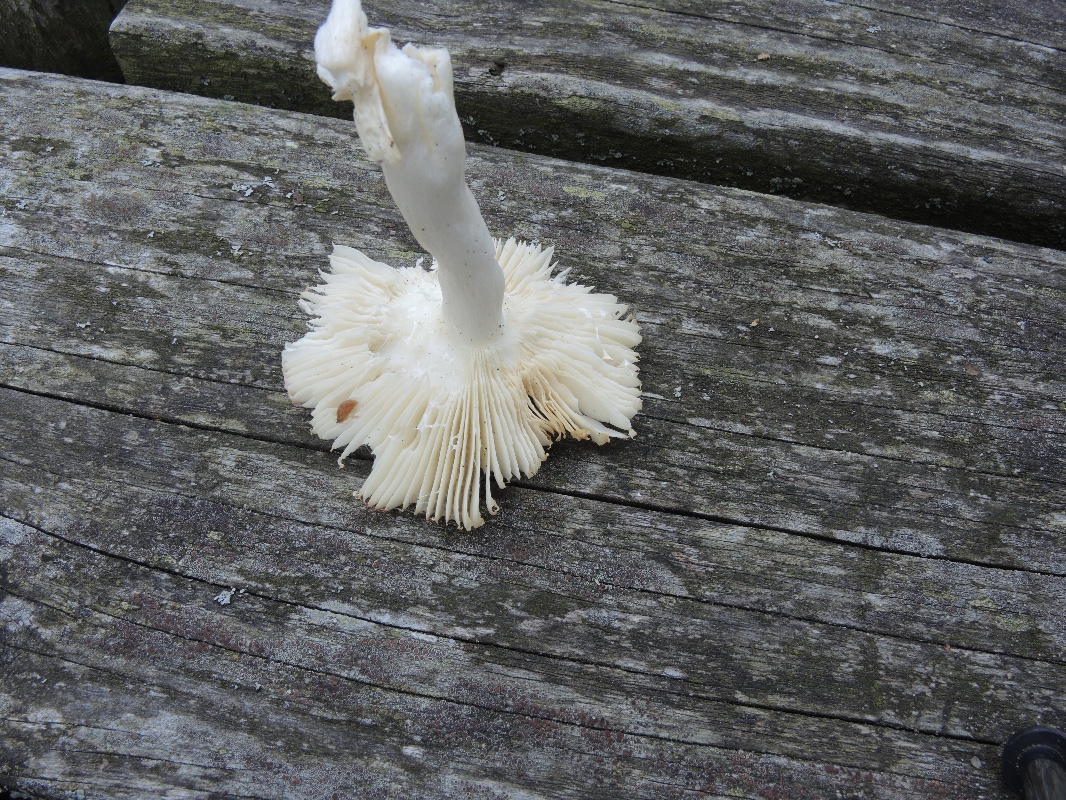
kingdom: Fungi
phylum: Basidiomycota
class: Agaricomycetes
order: Russulales
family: Russulaceae
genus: Russula
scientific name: Russula atrorubens
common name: sortrød skørhat
